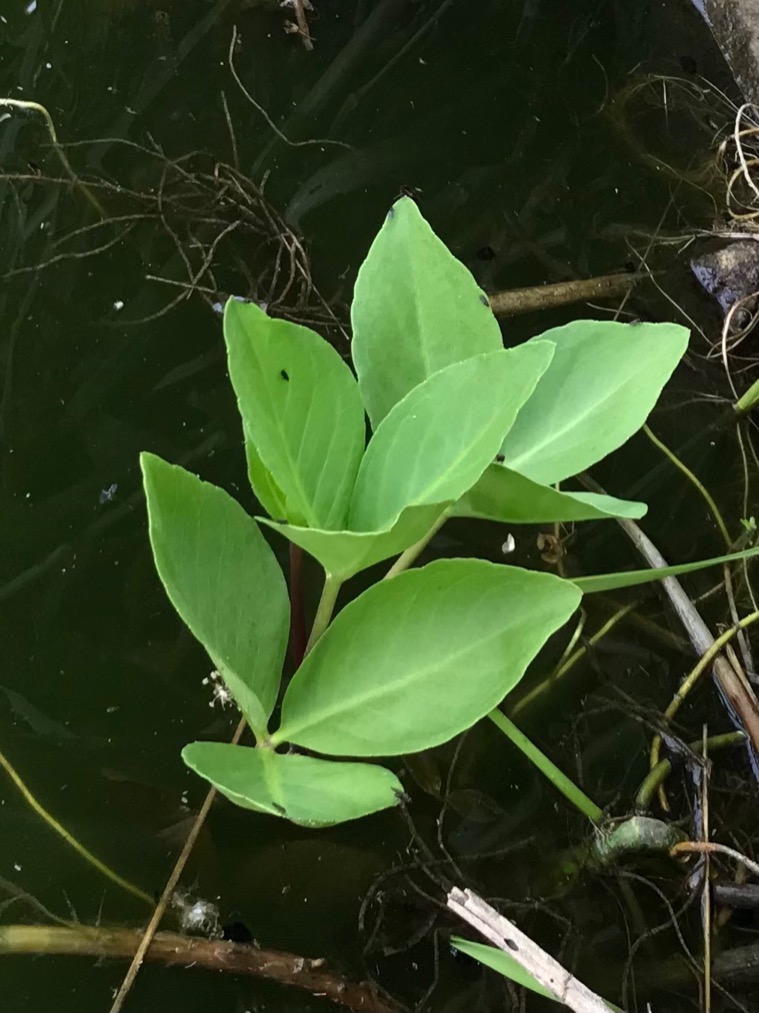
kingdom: Plantae
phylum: Tracheophyta
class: Magnoliopsida
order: Asterales
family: Menyanthaceae
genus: Menyanthes
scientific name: Menyanthes trifoliata
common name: Bukkeblad
